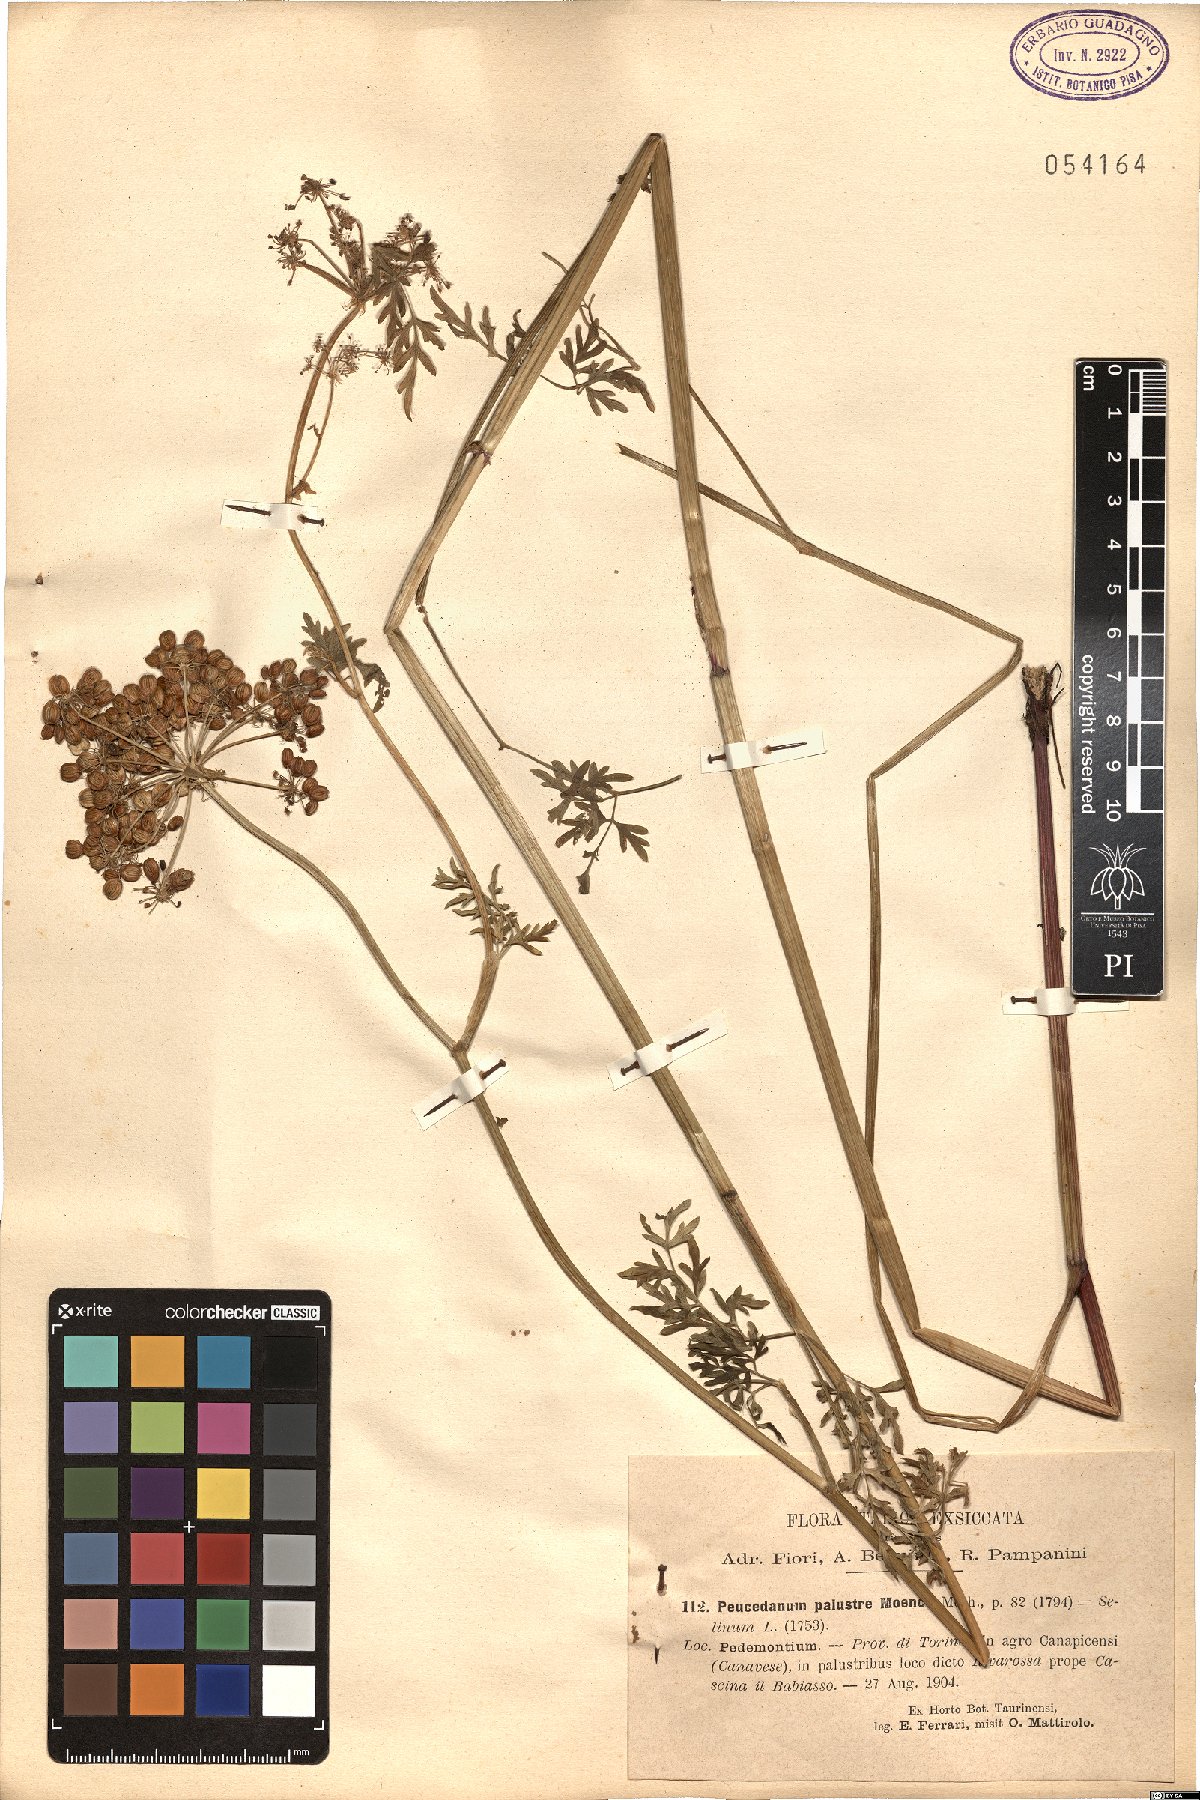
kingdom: Plantae
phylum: Tracheophyta
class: Magnoliopsida
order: Apiales
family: Apiaceae
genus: Thysselinum
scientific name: Thysselinum palustre
